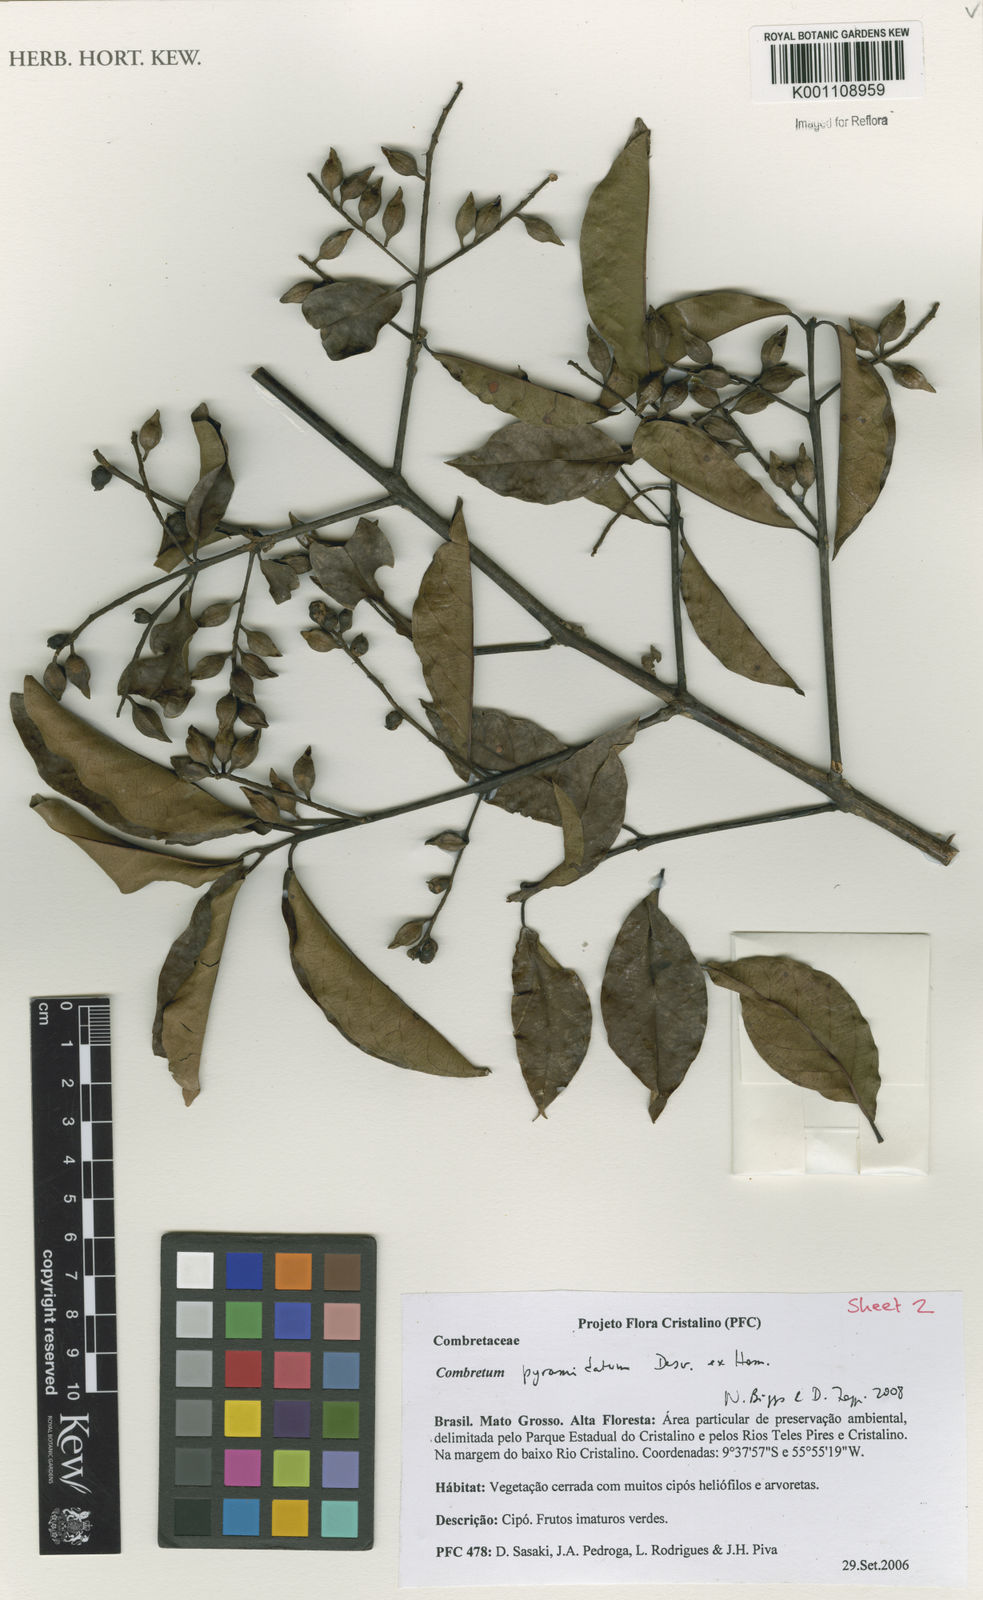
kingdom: Plantae
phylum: Tracheophyta
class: Magnoliopsida
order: Myrtales
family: Combretaceae
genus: Combretum
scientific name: Combretum pyramidatum
